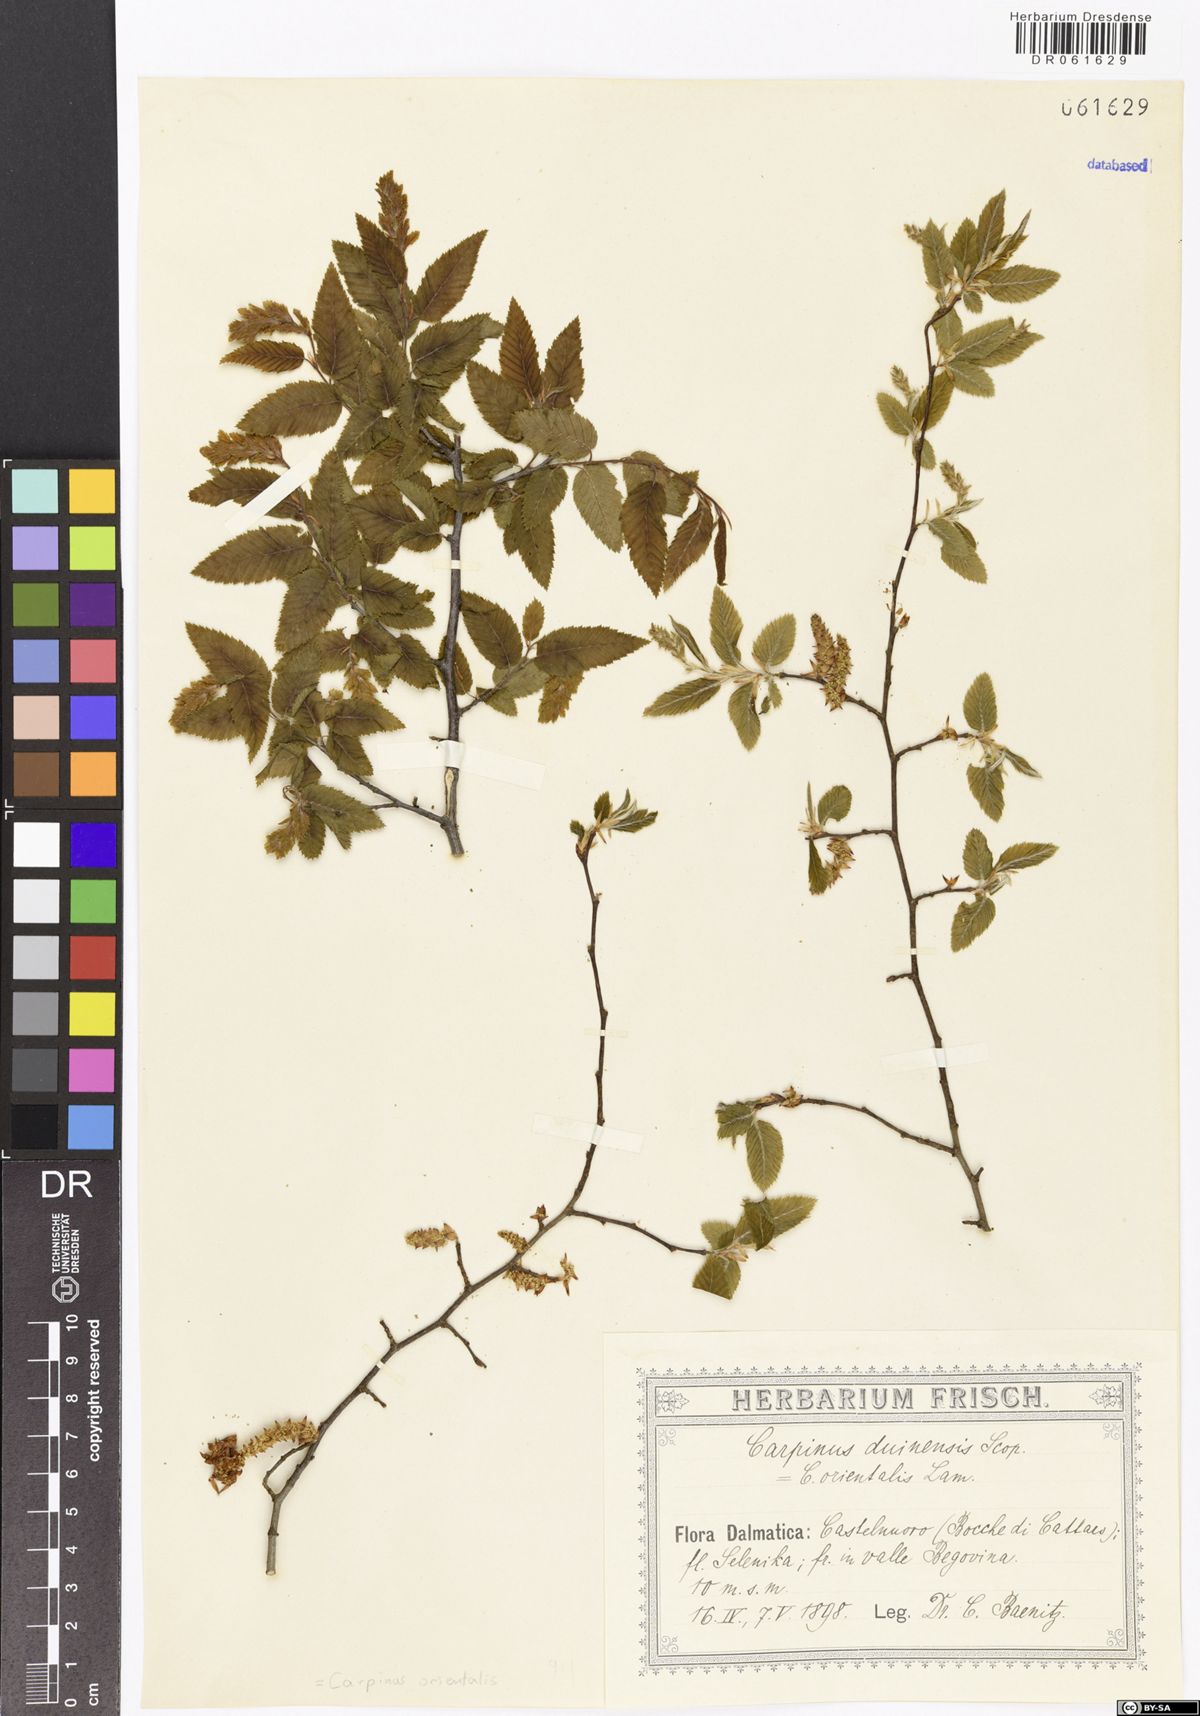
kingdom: Plantae
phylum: Tracheophyta
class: Magnoliopsida
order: Fagales
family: Betulaceae
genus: Carpinus
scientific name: Carpinus orientalis
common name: Eastern hornbeam
